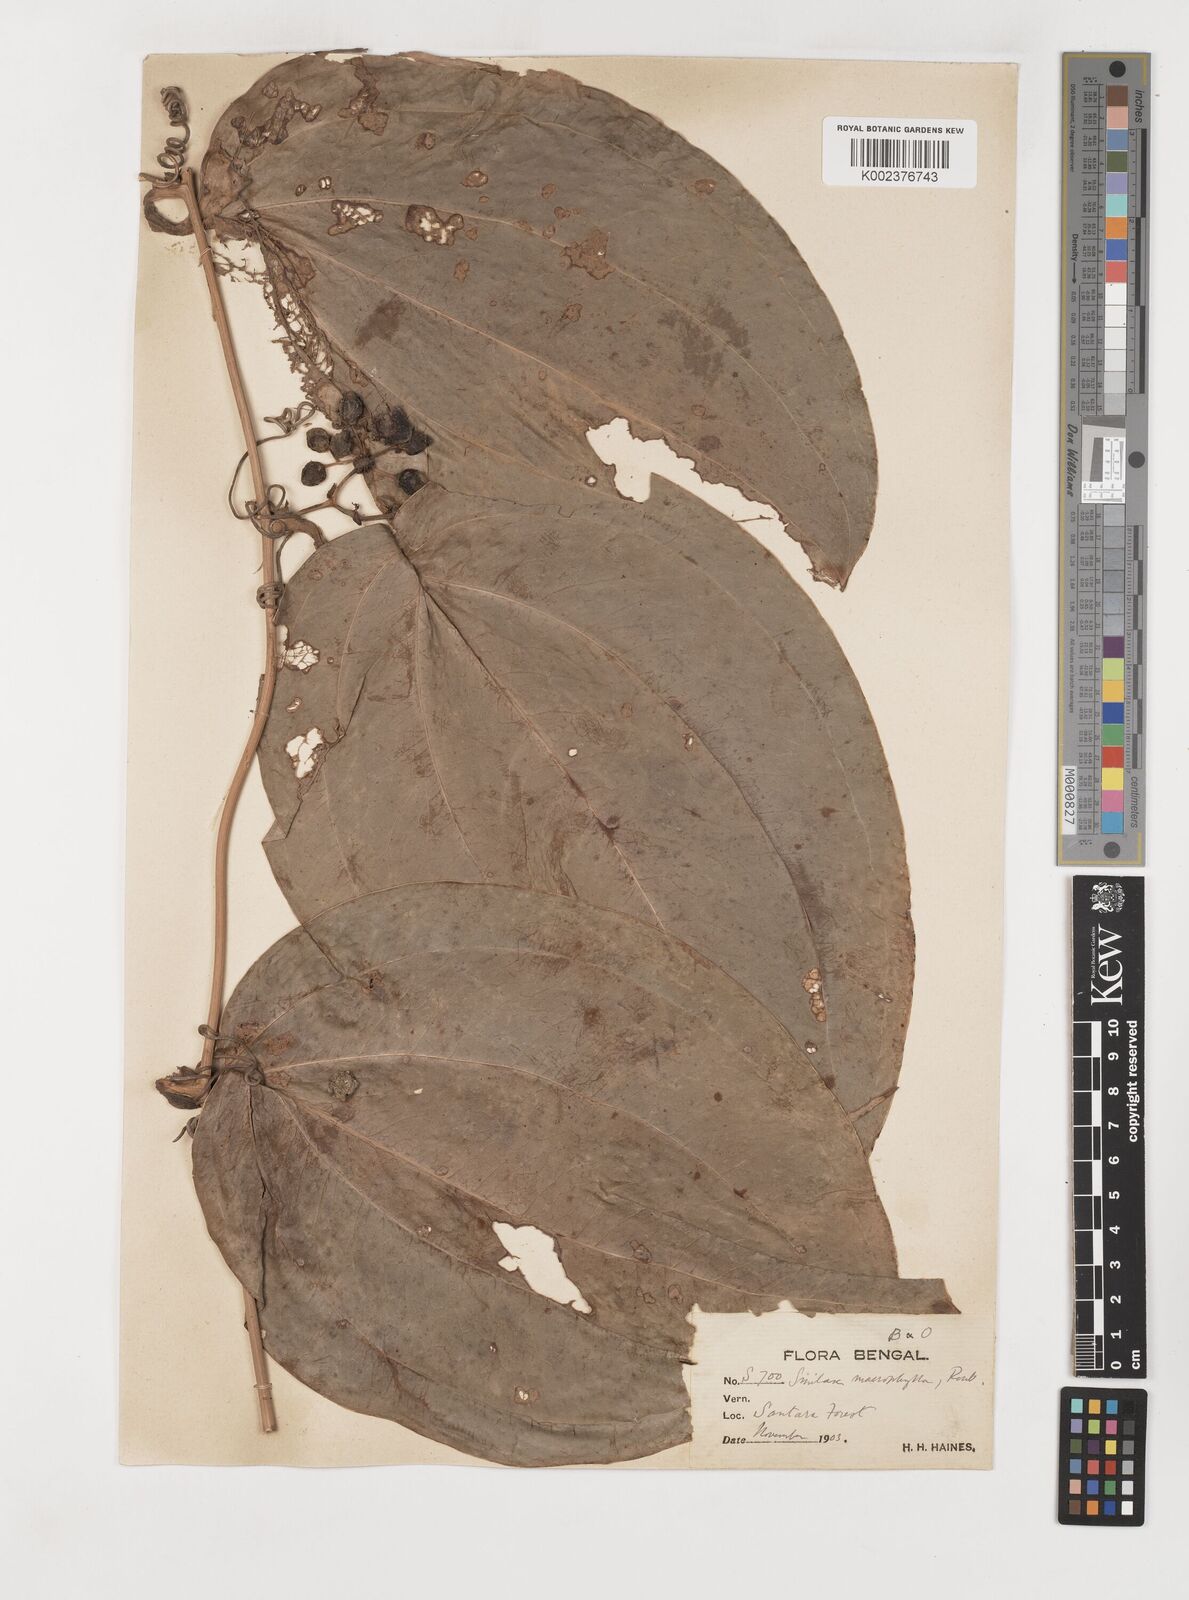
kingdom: Plantae
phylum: Tracheophyta
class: Liliopsida
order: Liliales
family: Smilacaceae
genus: Smilax
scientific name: Smilax ovalifolia
